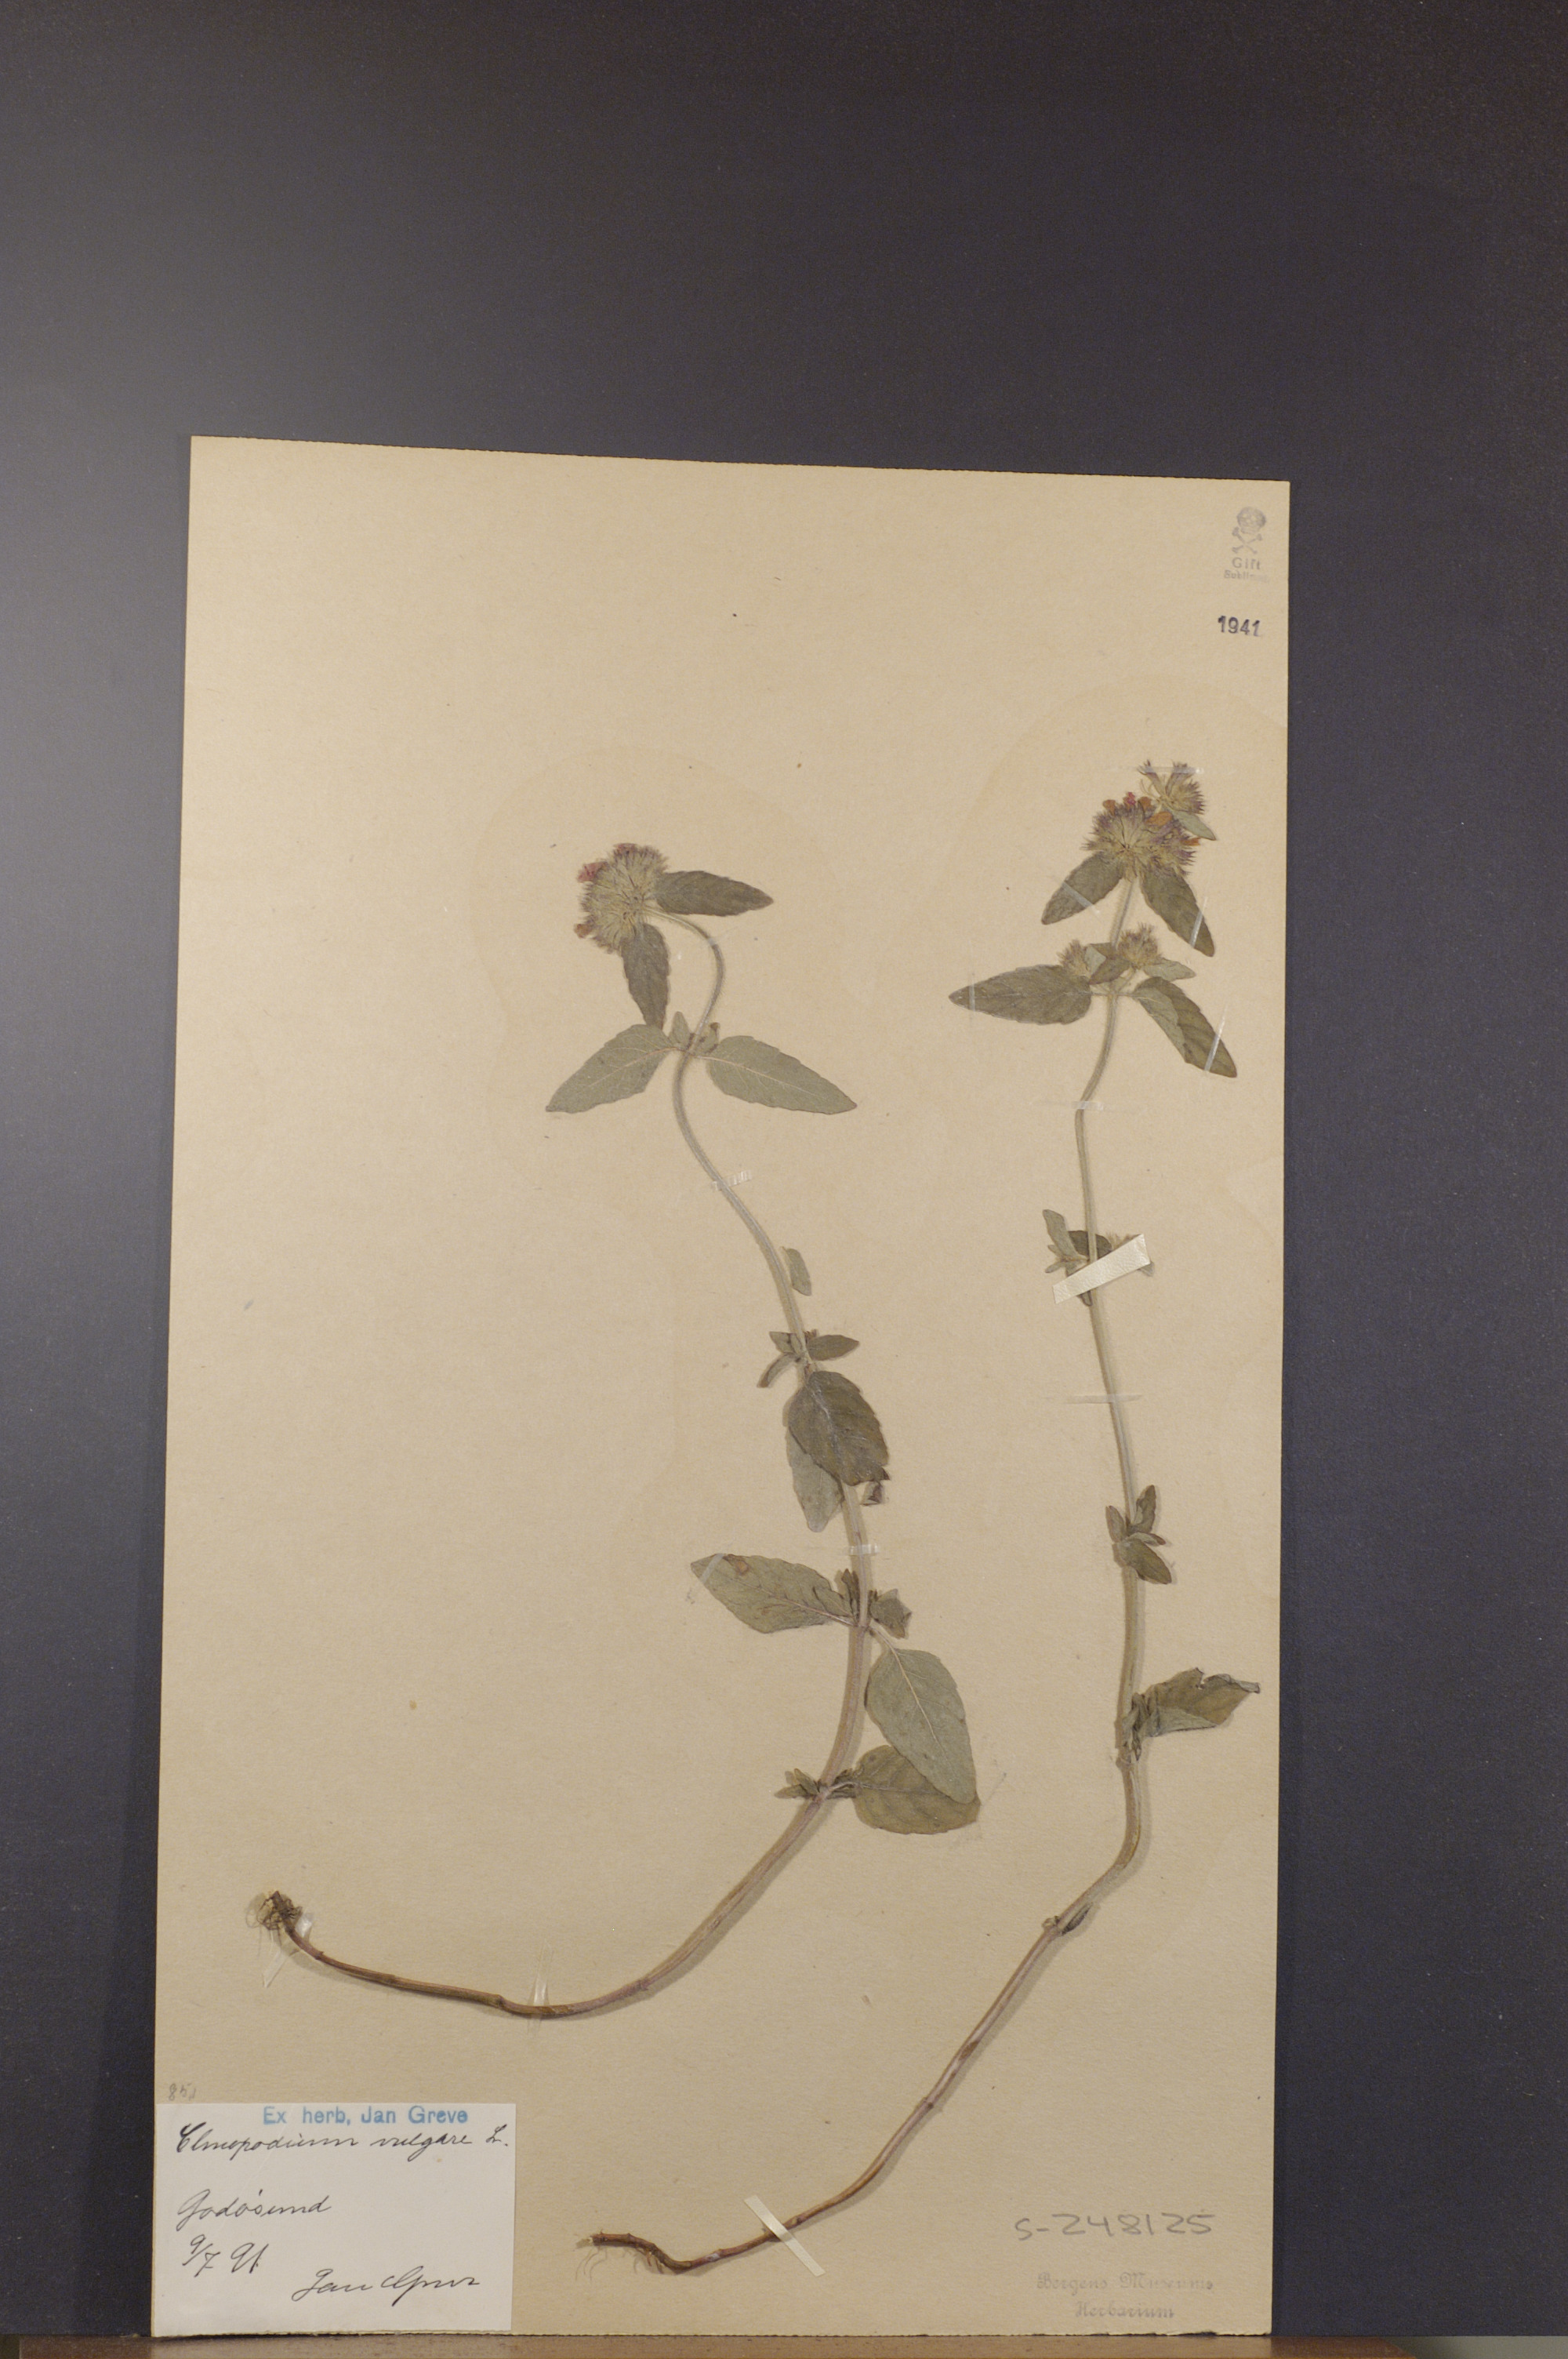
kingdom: Plantae
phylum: Tracheophyta
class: Magnoliopsida
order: Lamiales
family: Lamiaceae
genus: Clinopodium
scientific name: Clinopodium vulgare
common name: Wild basil
